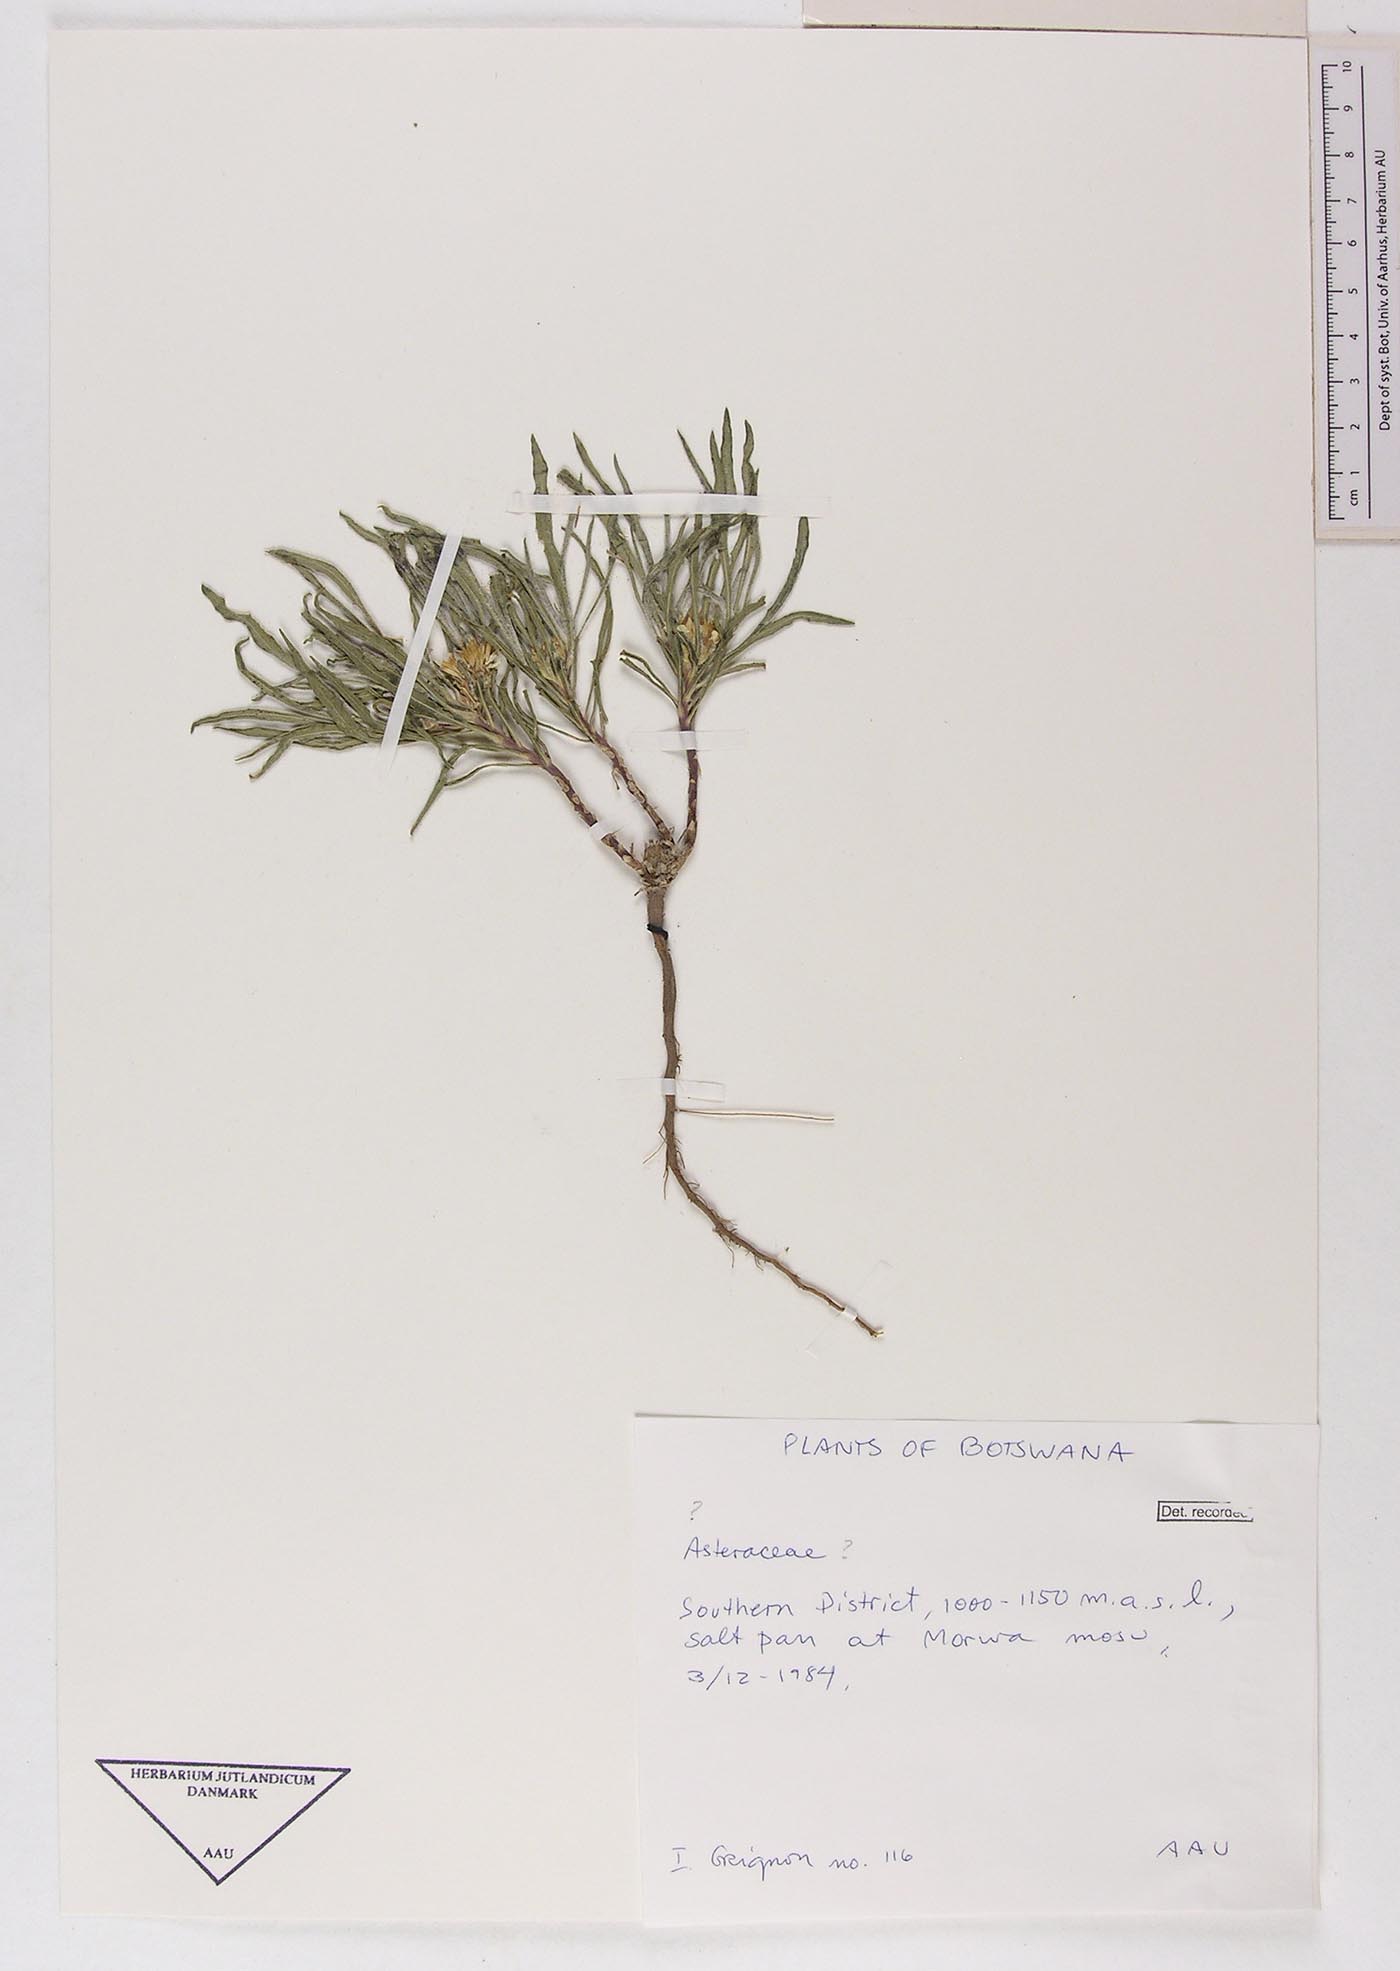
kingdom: Plantae
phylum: Tracheophyta
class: Magnoliopsida
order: Asterales
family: Asteraceae
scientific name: Asteraceae
